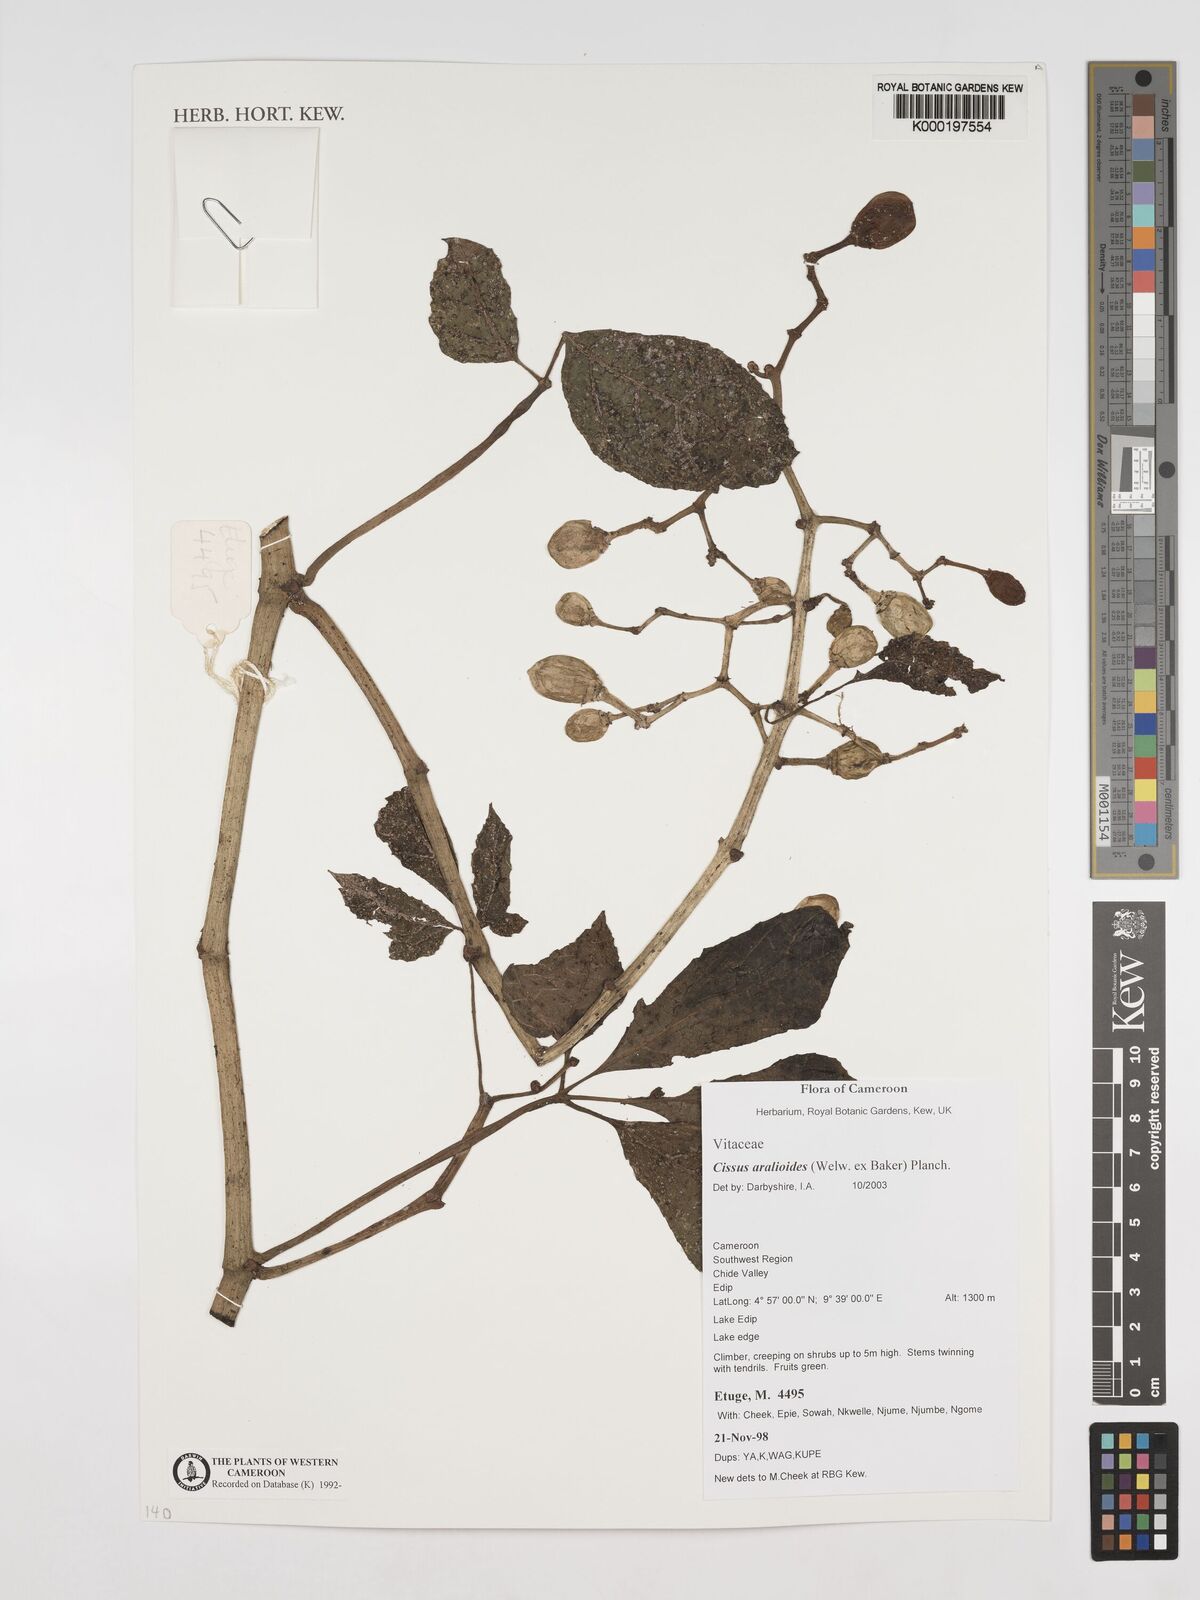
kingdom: Plantae
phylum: Tracheophyta
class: Magnoliopsida
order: Vitales
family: Vitaceae
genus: Cissus
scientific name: Cissus aralioides
